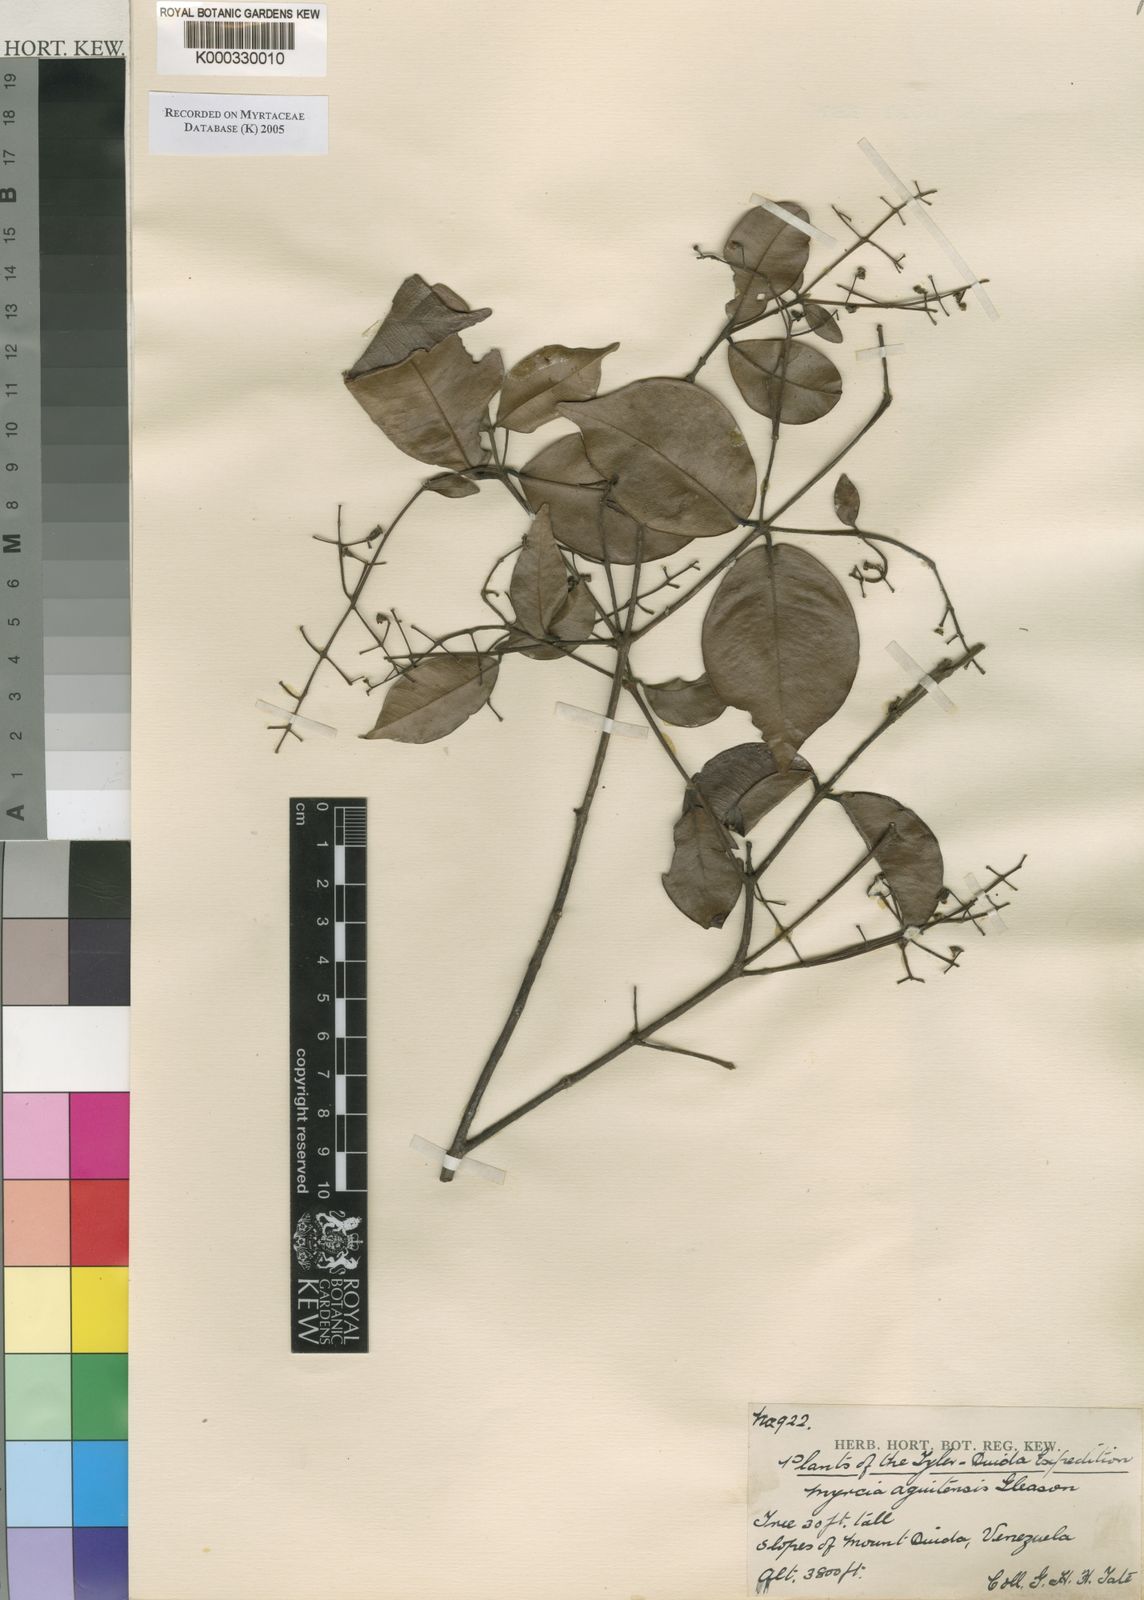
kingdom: Plantae
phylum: Tracheophyta
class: Magnoliopsida
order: Myrtales
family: Myrtaceae
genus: Myrcia
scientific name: Myrcia splendens
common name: Surinam cherry
